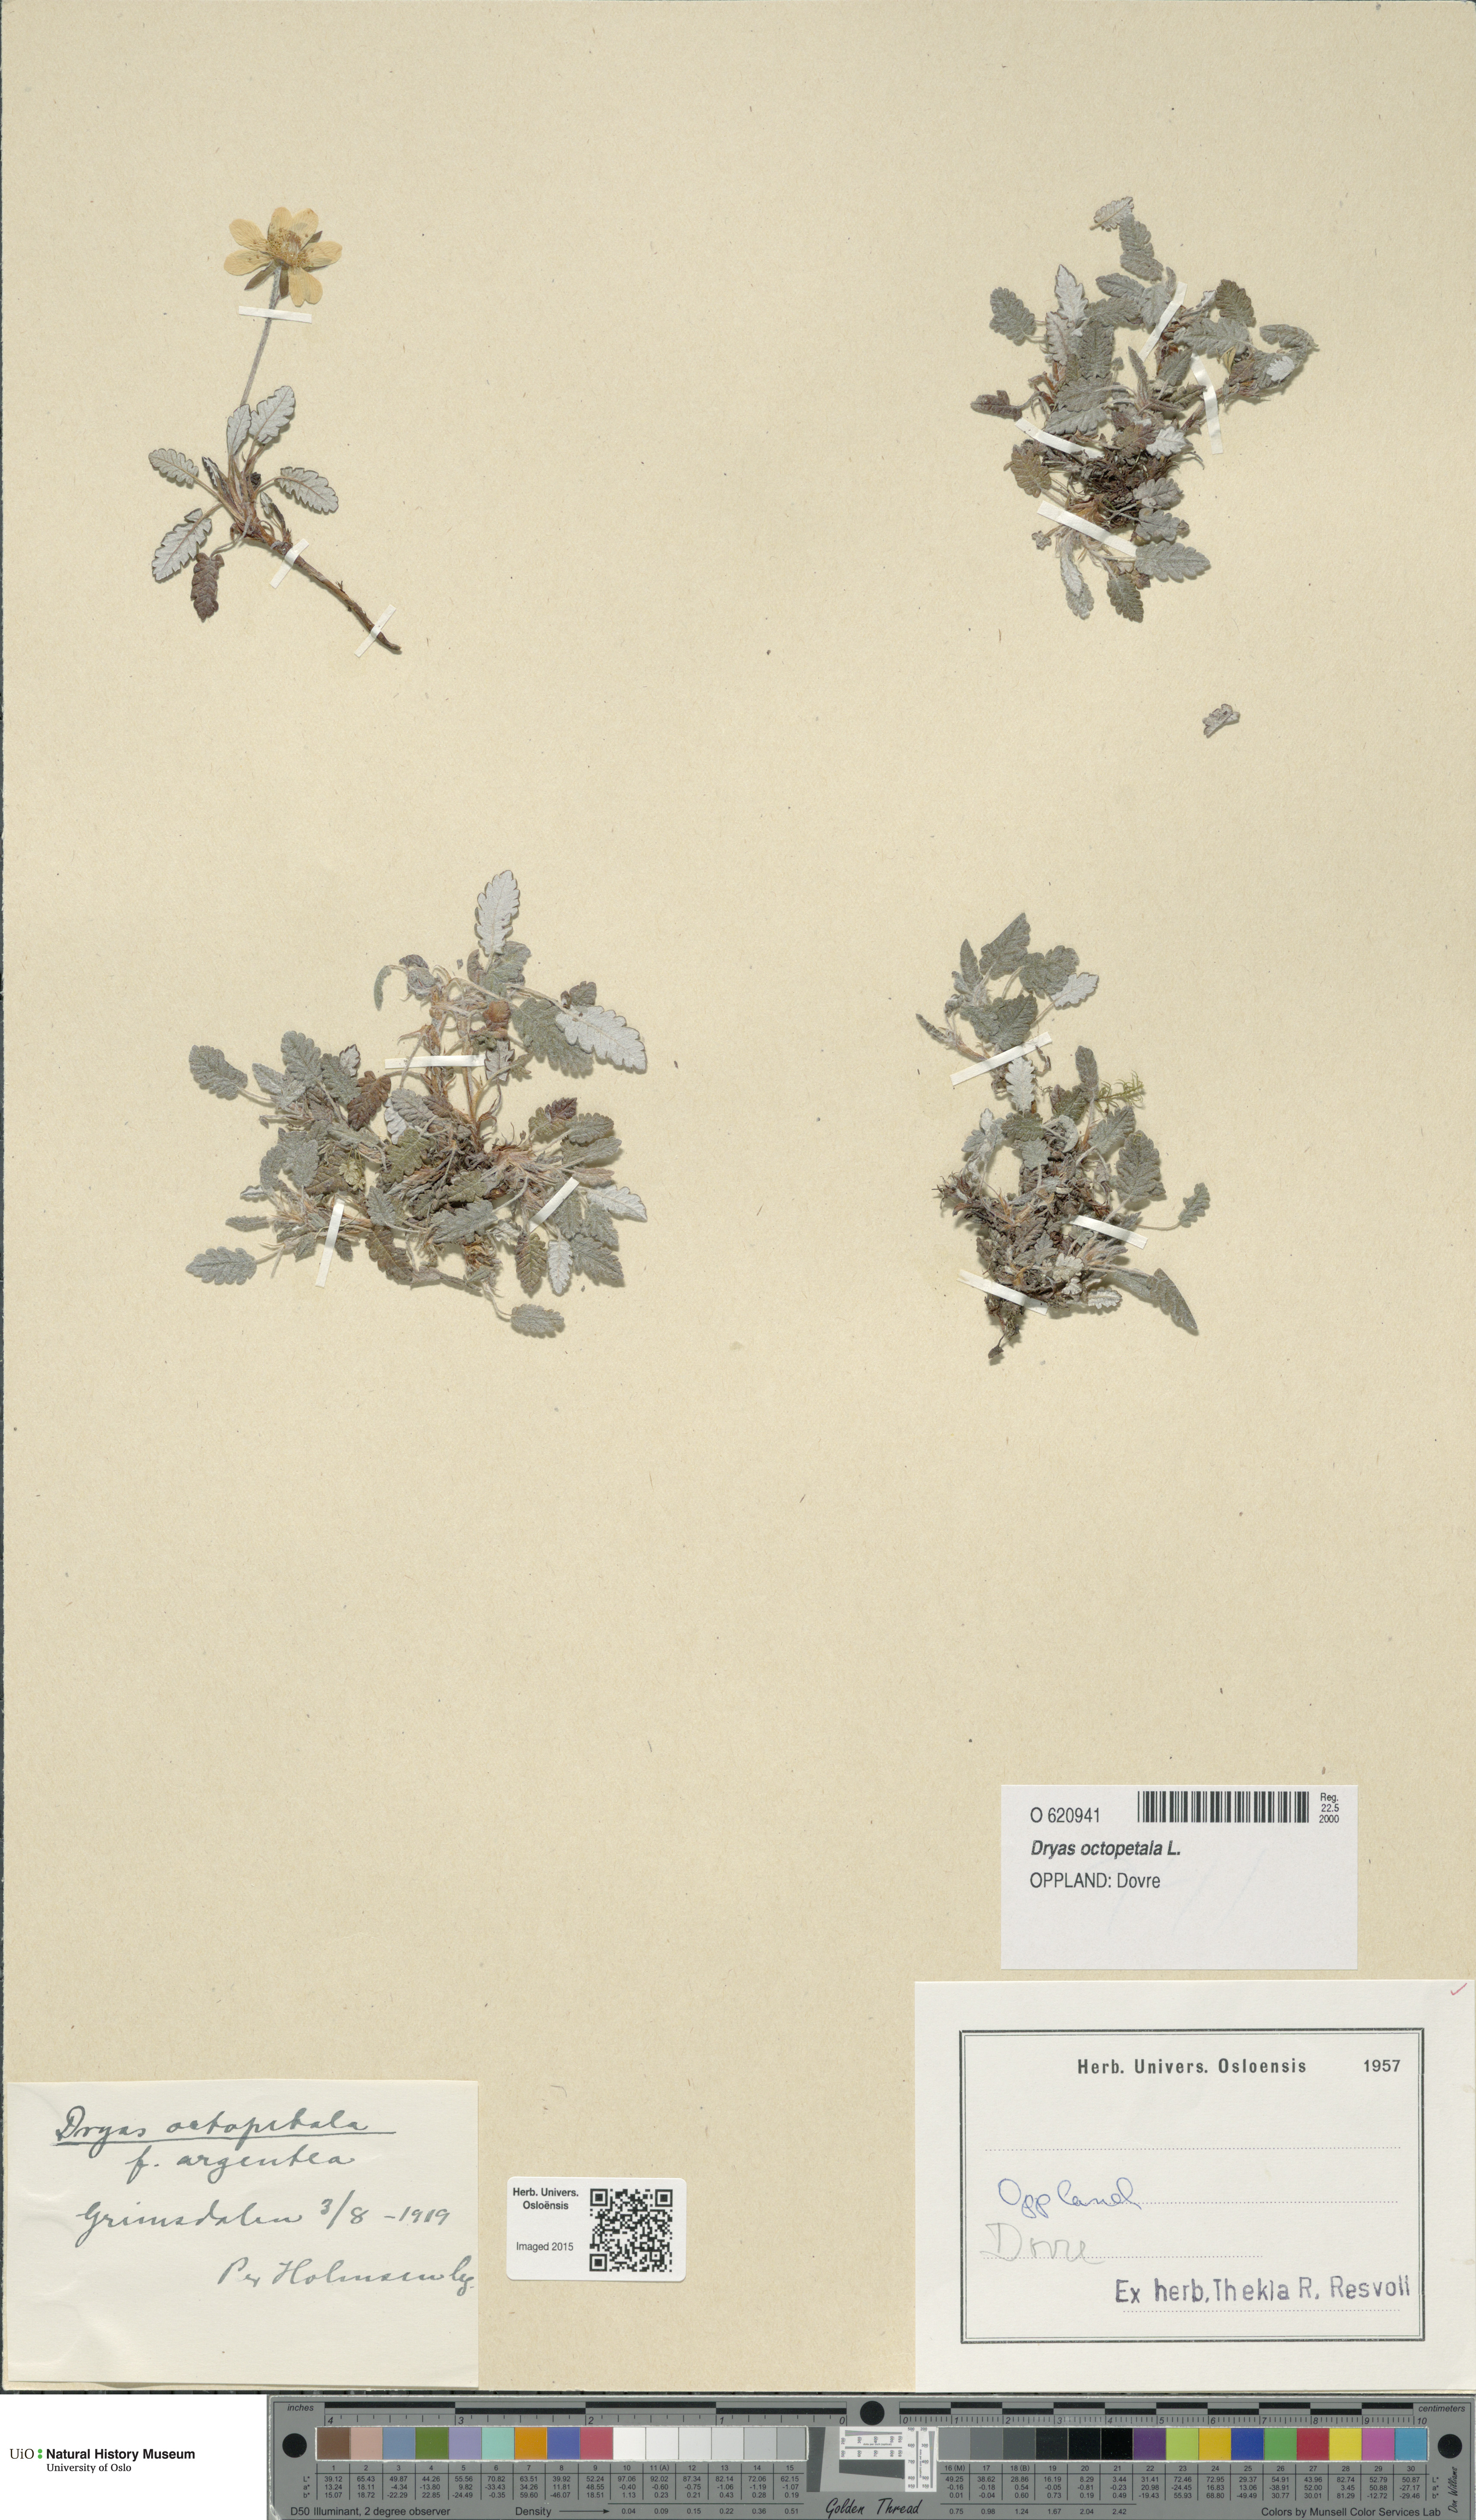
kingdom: Plantae
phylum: Tracheophyta
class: Magnoliopsida
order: Rosales
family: Rosaceae
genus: Dryas
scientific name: Dryas octopetala
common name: Eight-petal mountain-avens
